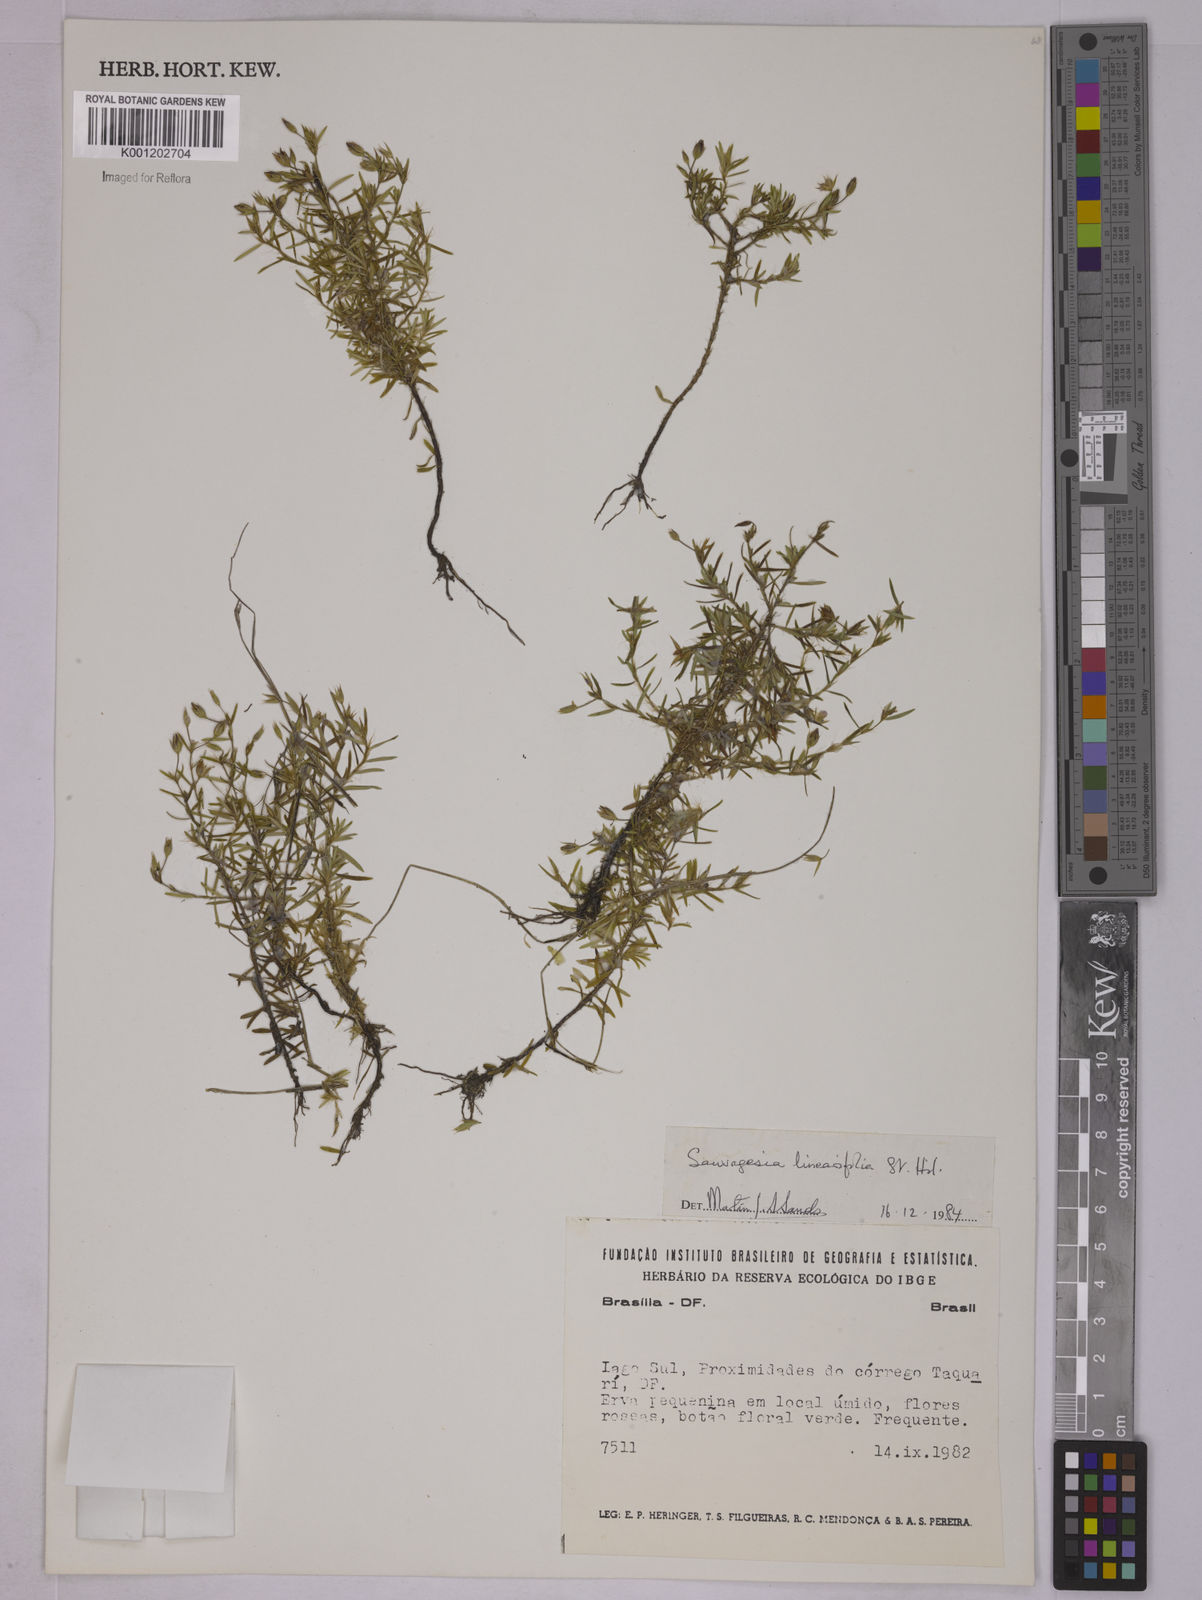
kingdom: Plantae
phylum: Tracheophyta
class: Magnoliopsida
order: Malpighiales
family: Ochnaceae
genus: Sauvagesia
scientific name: Sauvagesia linearifolia
